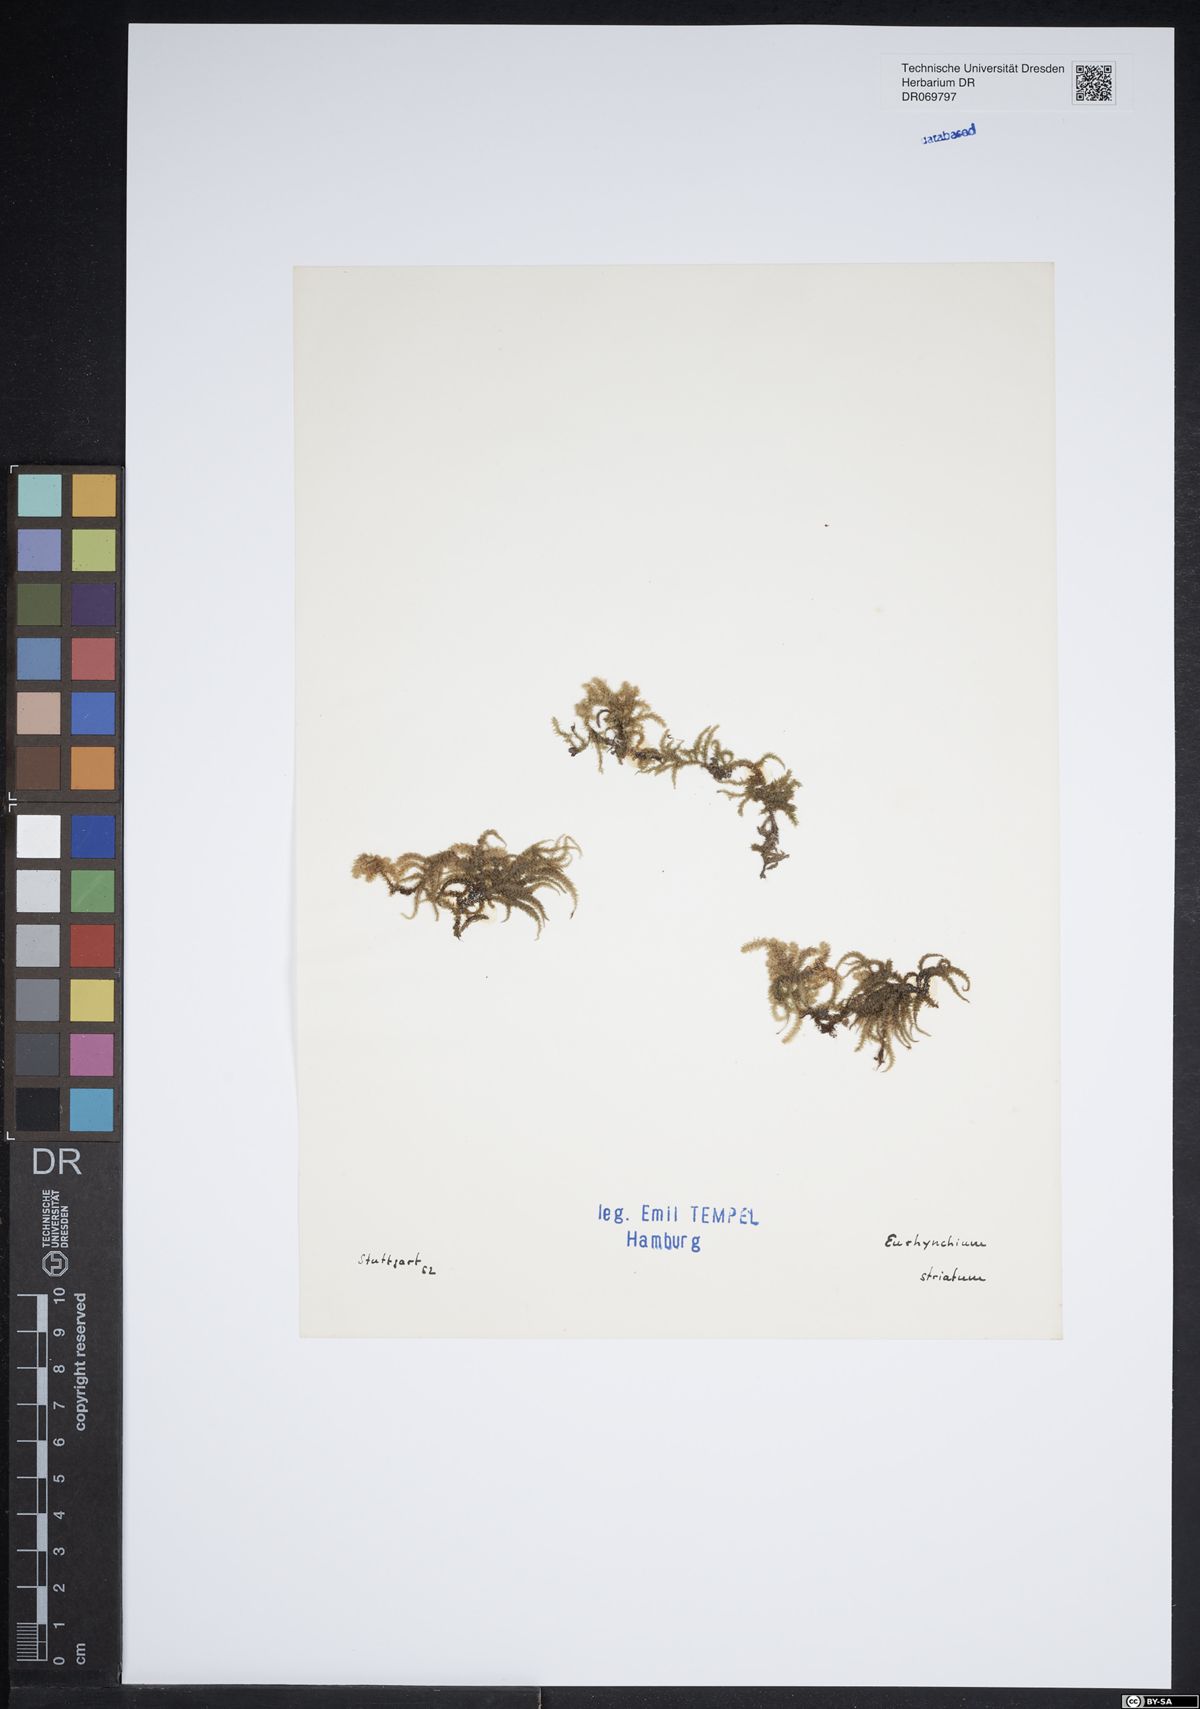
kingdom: Plantae
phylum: Bryophyta
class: Bryopsida
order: Hypnales
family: Brachytheciaceae
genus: Eurhynchium
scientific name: Eurhynchium striatum
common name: Common striated feather-moss
